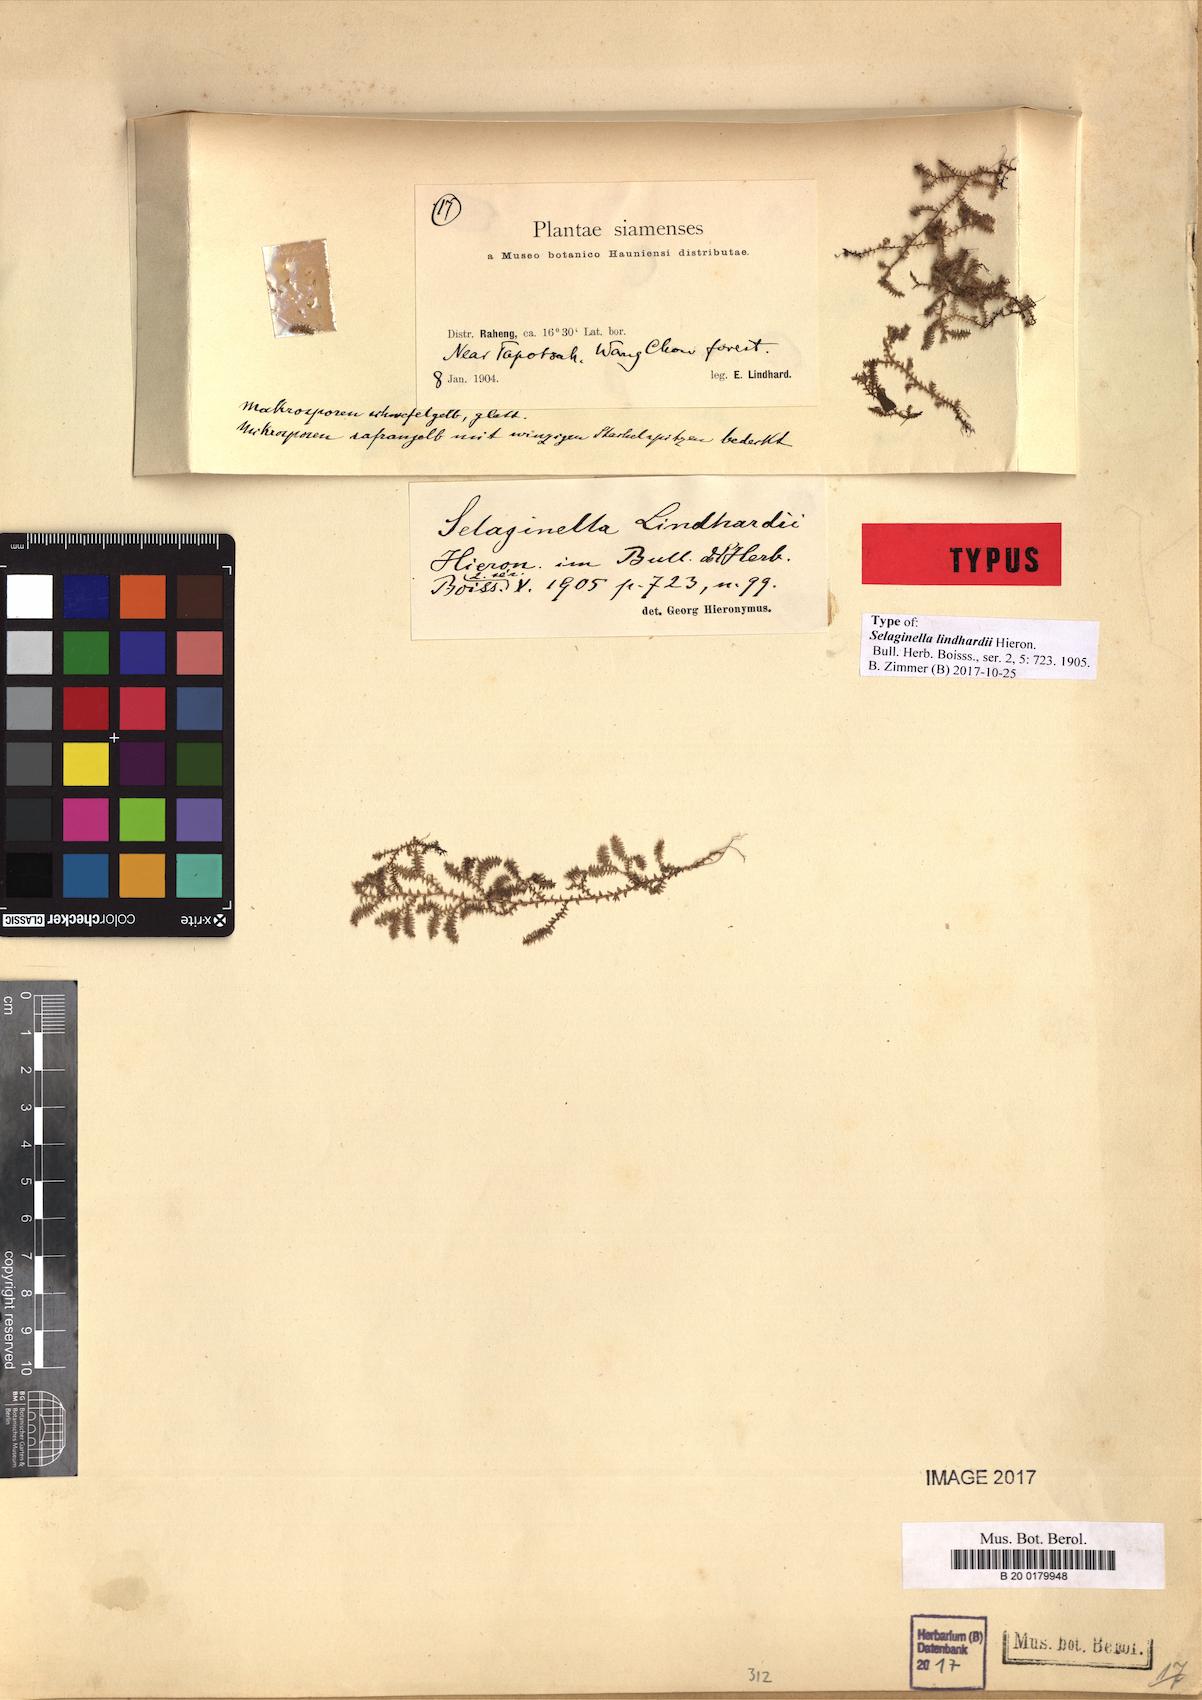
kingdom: Plantae
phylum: Tracheophyta
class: Lycopodiopsida
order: Selaginellales
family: Selaginellaceae
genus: Selaginella
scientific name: Selaginella lindhardtii
